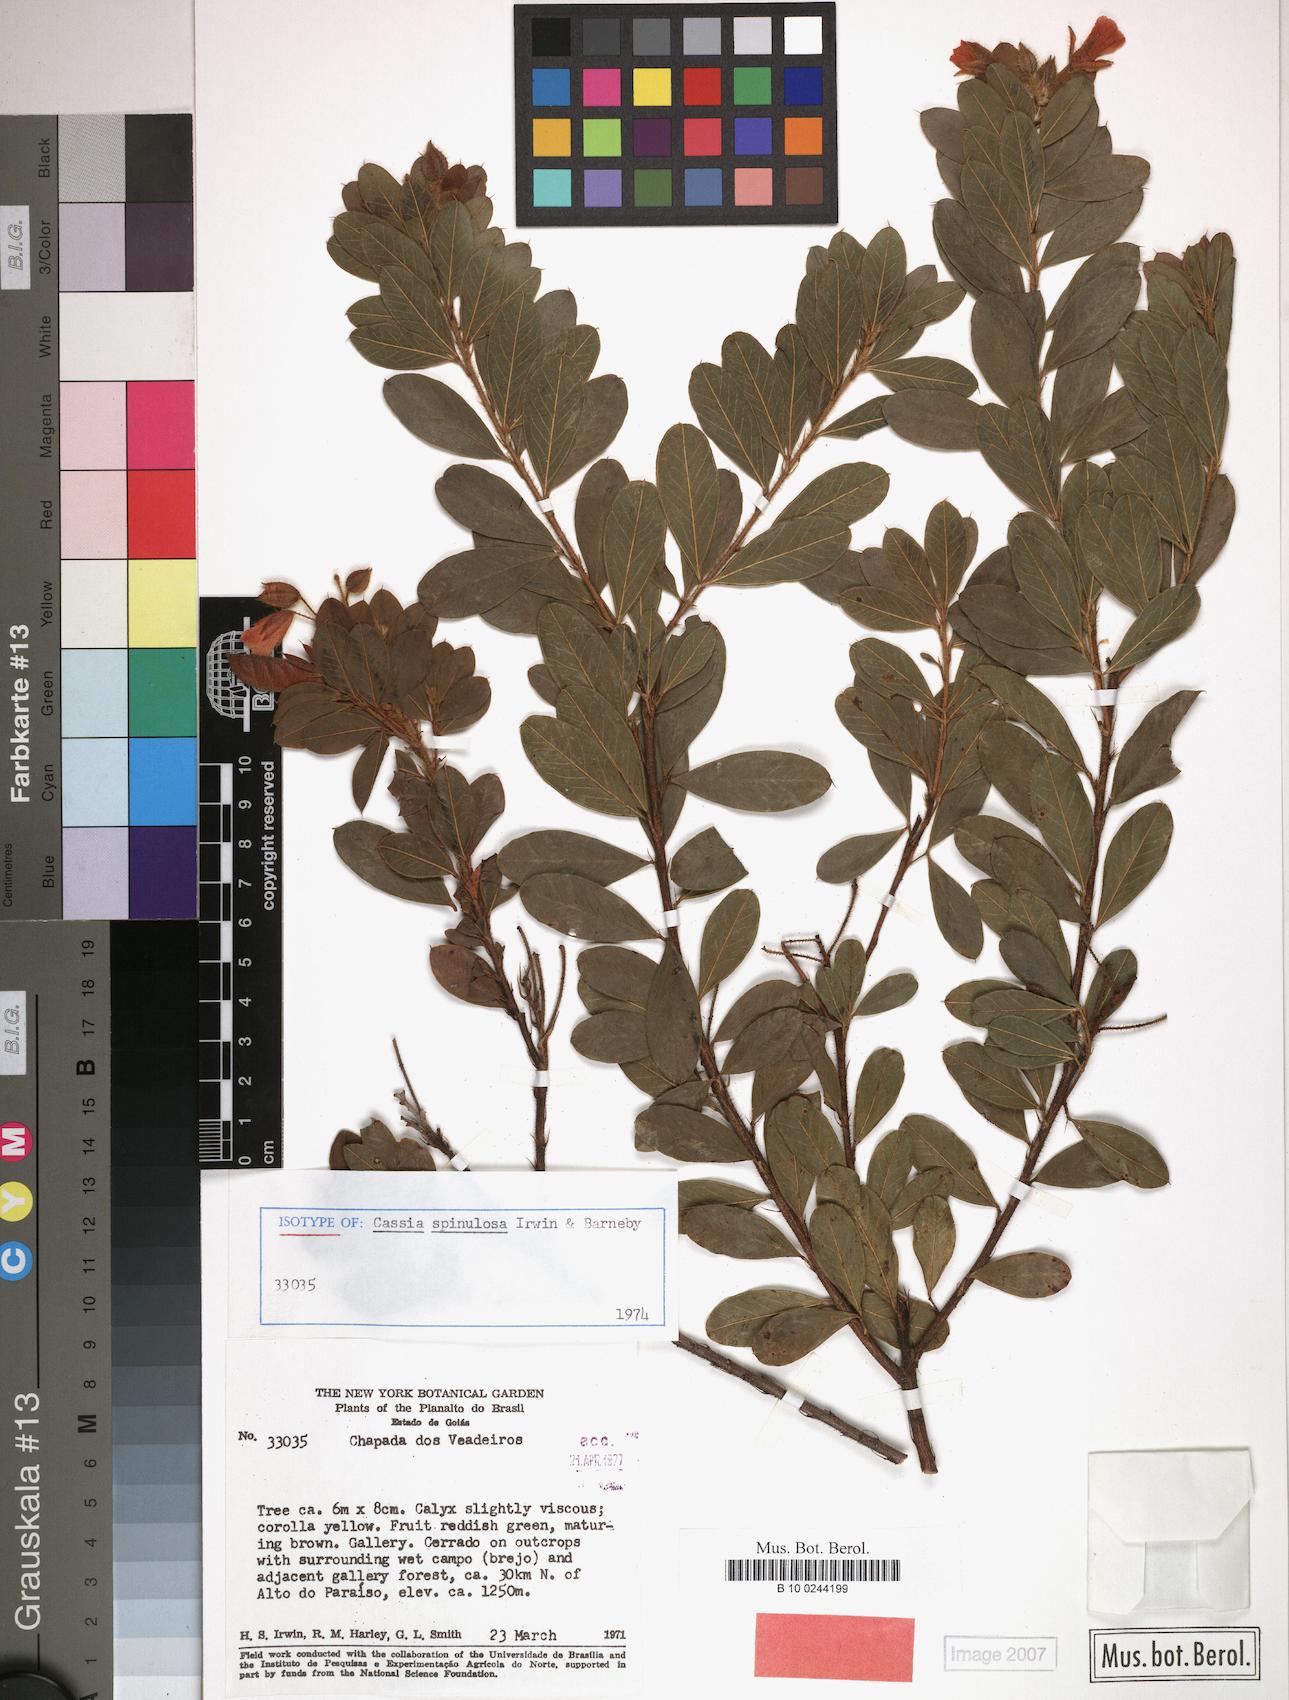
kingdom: Plantae
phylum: Tracheophyta
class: Magnoliopsida
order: Fabales
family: Fabaceae
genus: Chamaecrista
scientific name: Chamaecrista spinulosa
